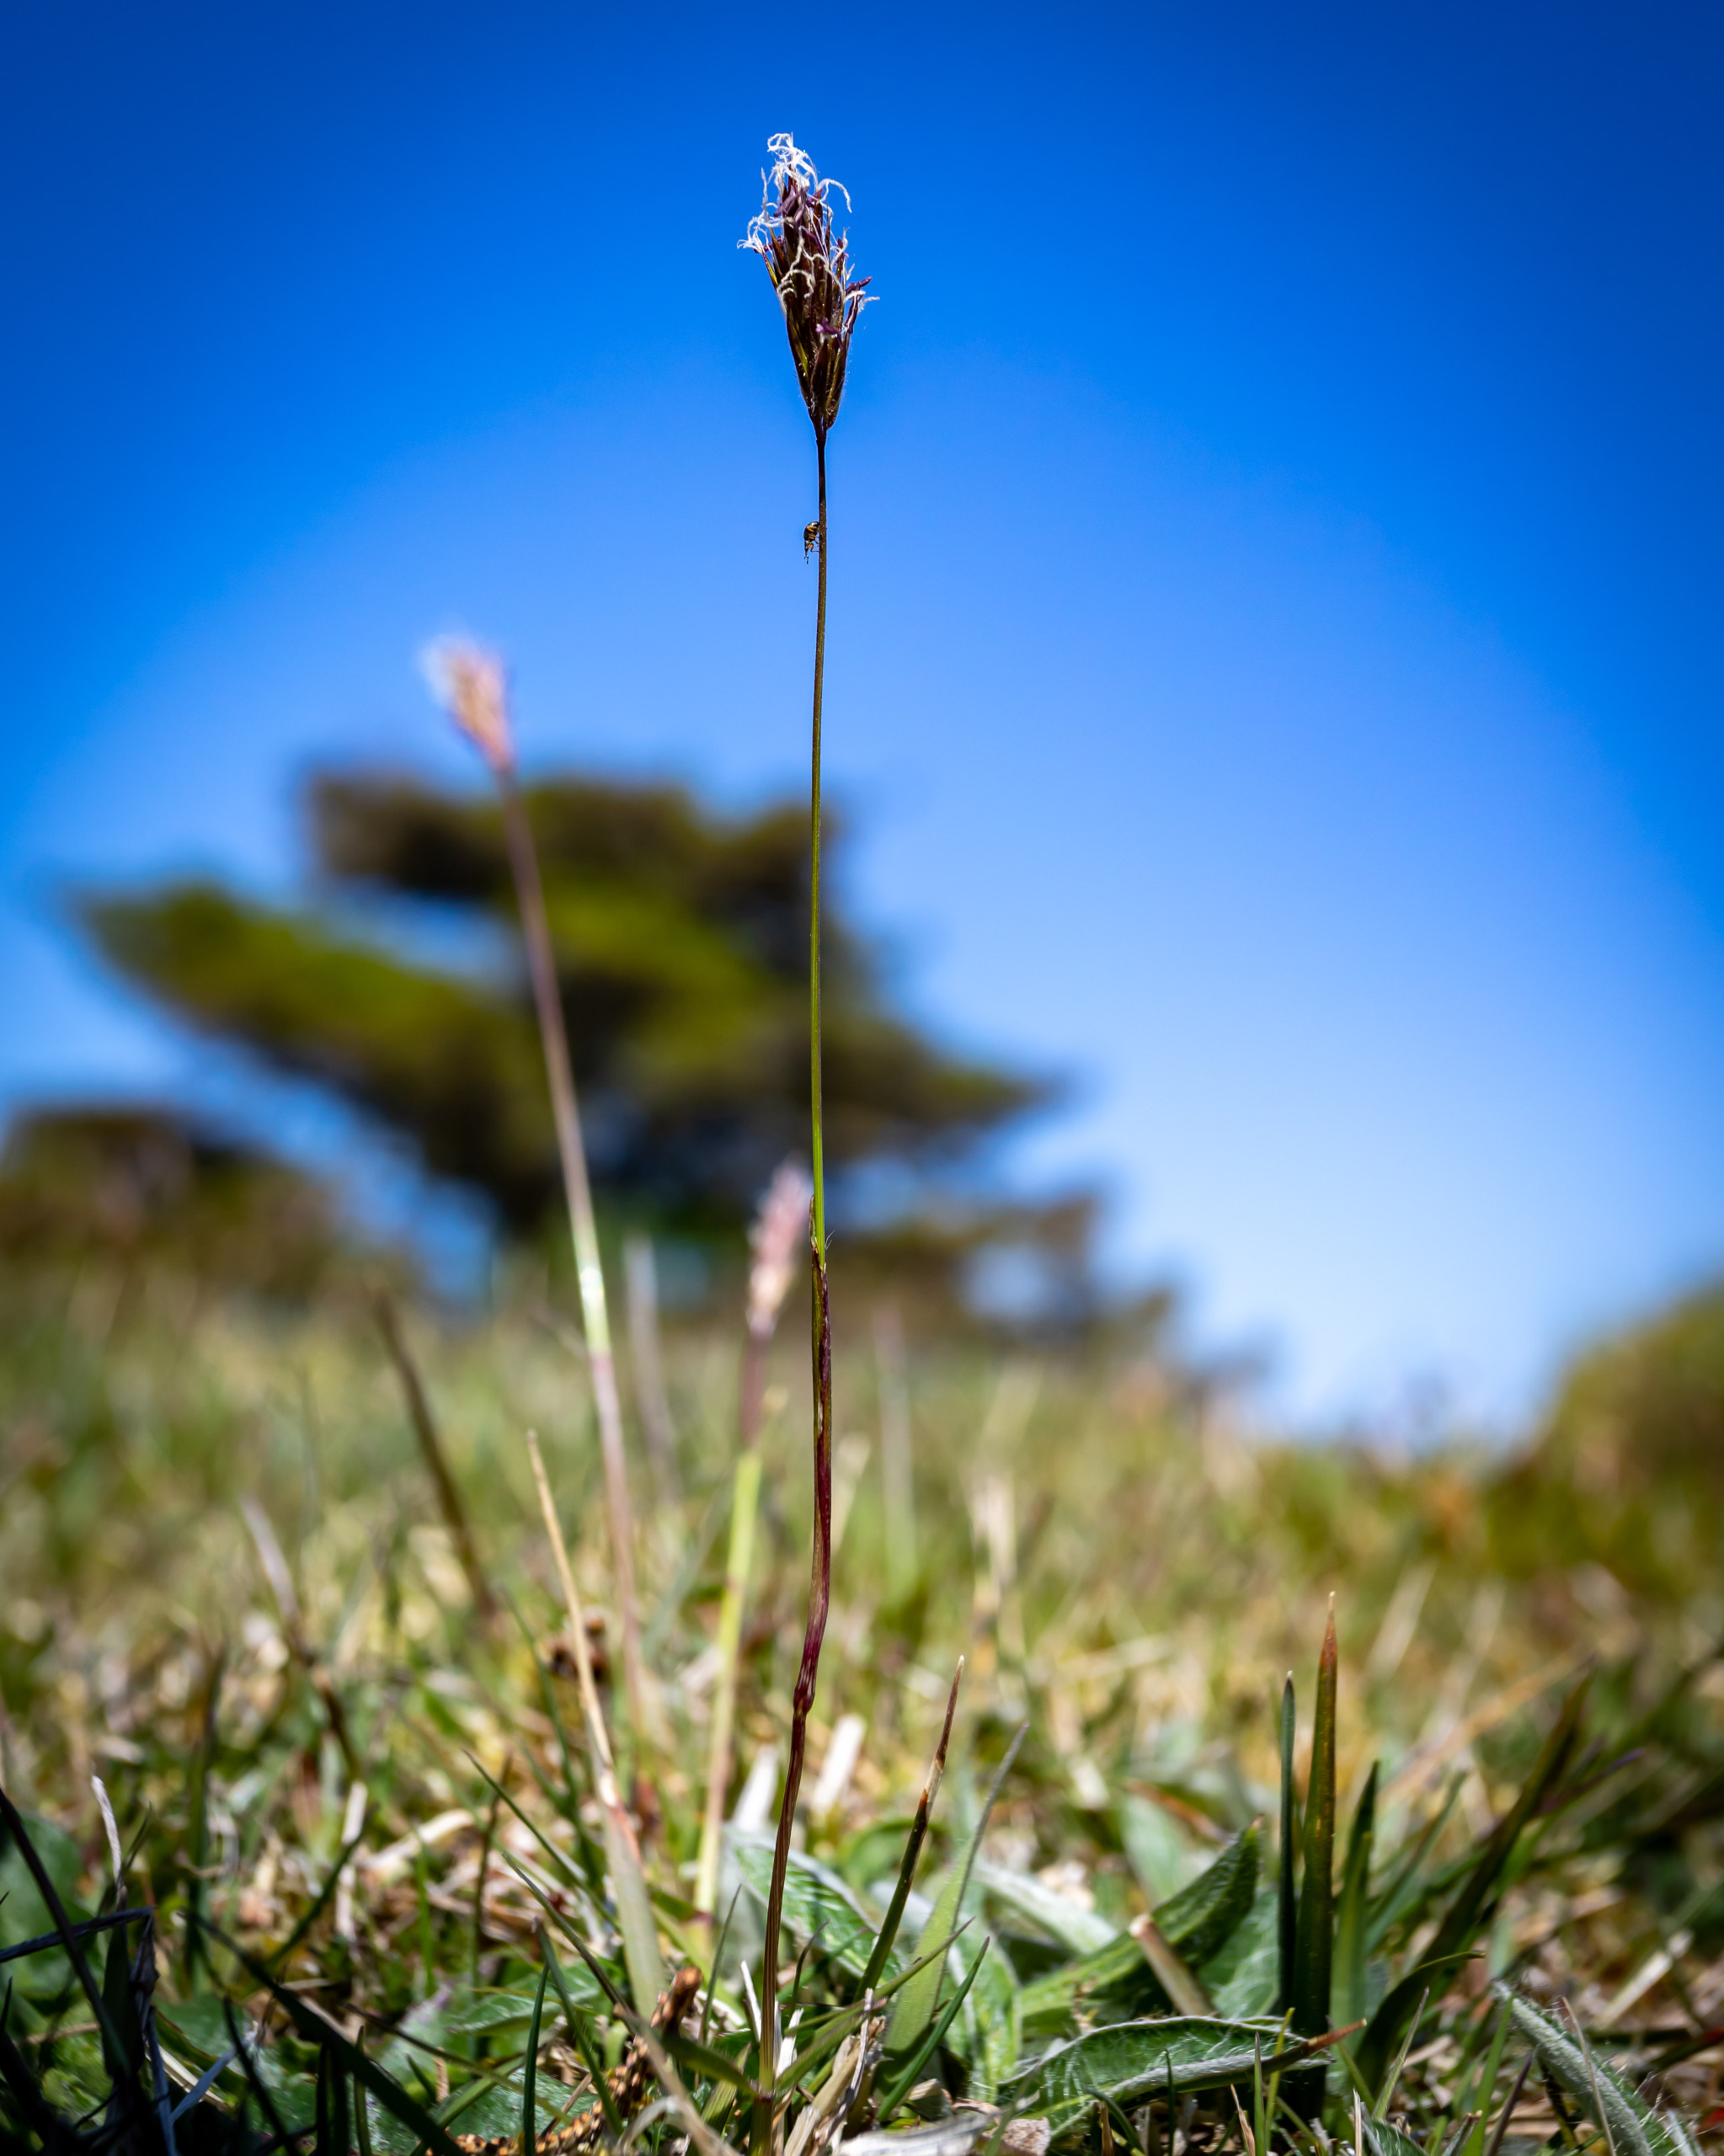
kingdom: Plantae
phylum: Tracheophyta
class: Liliopsida
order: Poales
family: Poaceae
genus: Anthoxanthum
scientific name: Anthoxanthum odoratum
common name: Vellugtende gulaks
